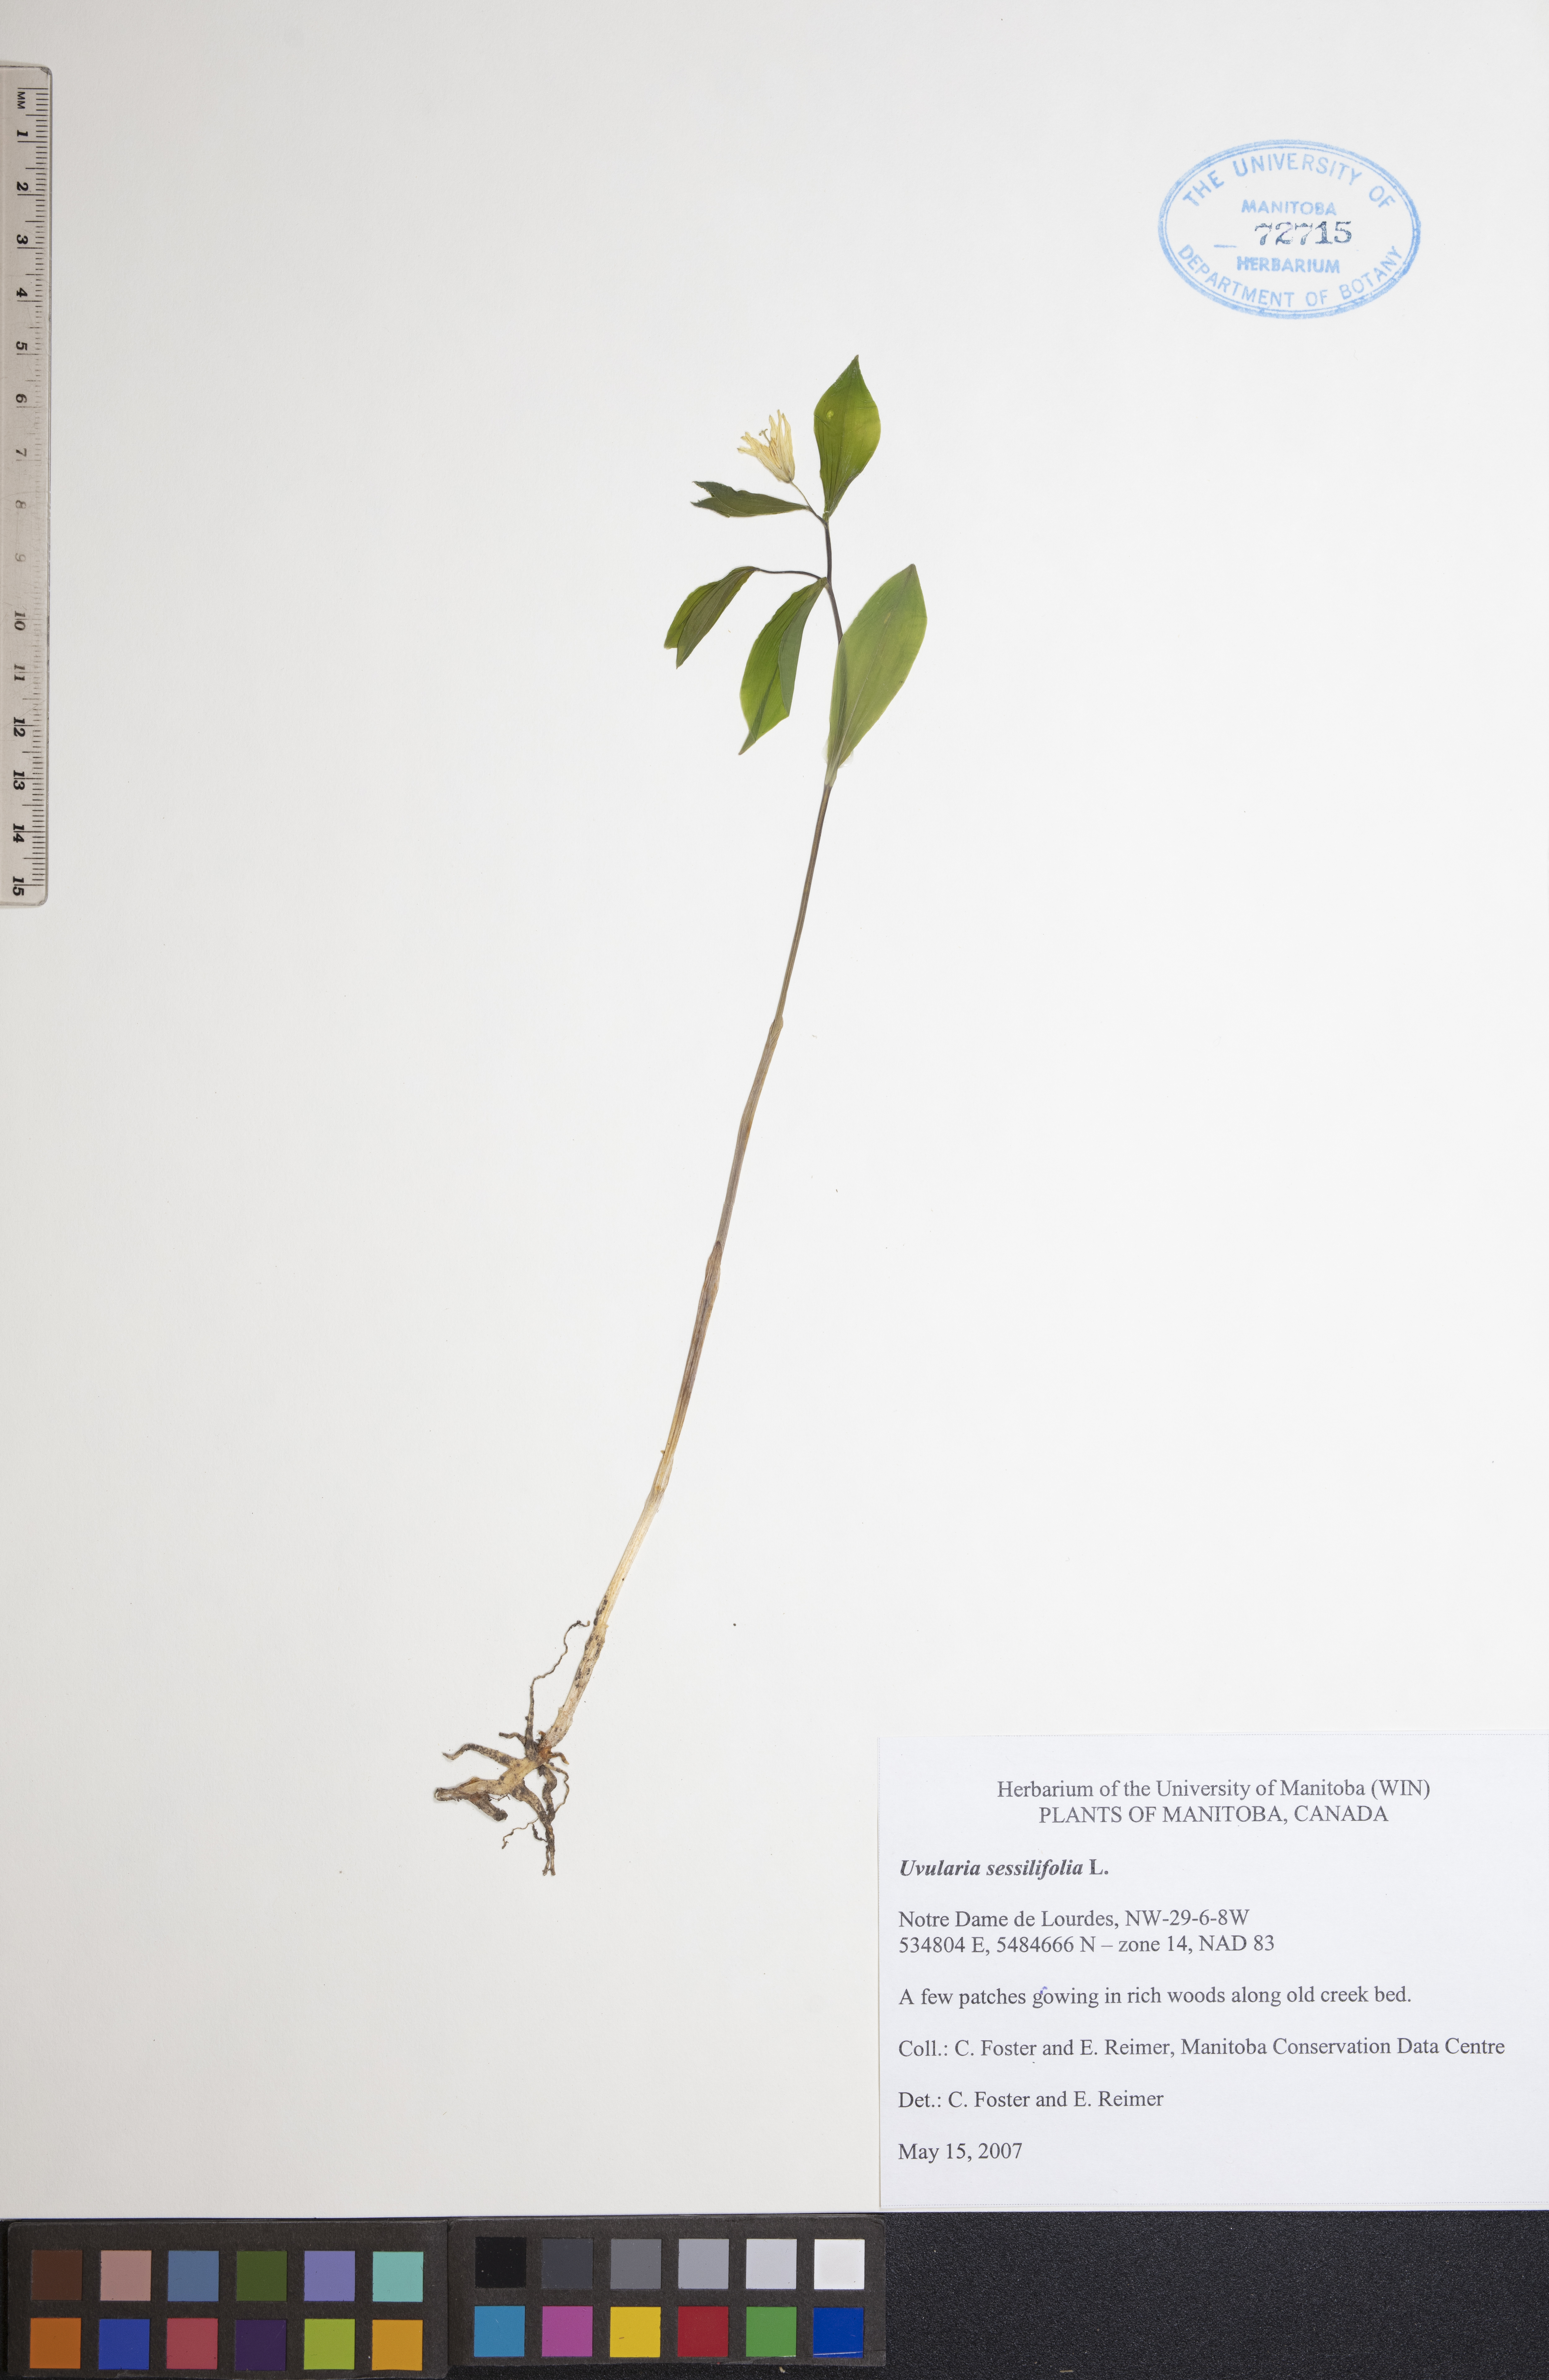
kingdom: Plantae
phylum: Tracheophyta
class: Liliopsida
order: Liliales
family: Colchicaceae
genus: Uvularia
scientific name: Uvularia sessilifolia
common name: Straw-lily
